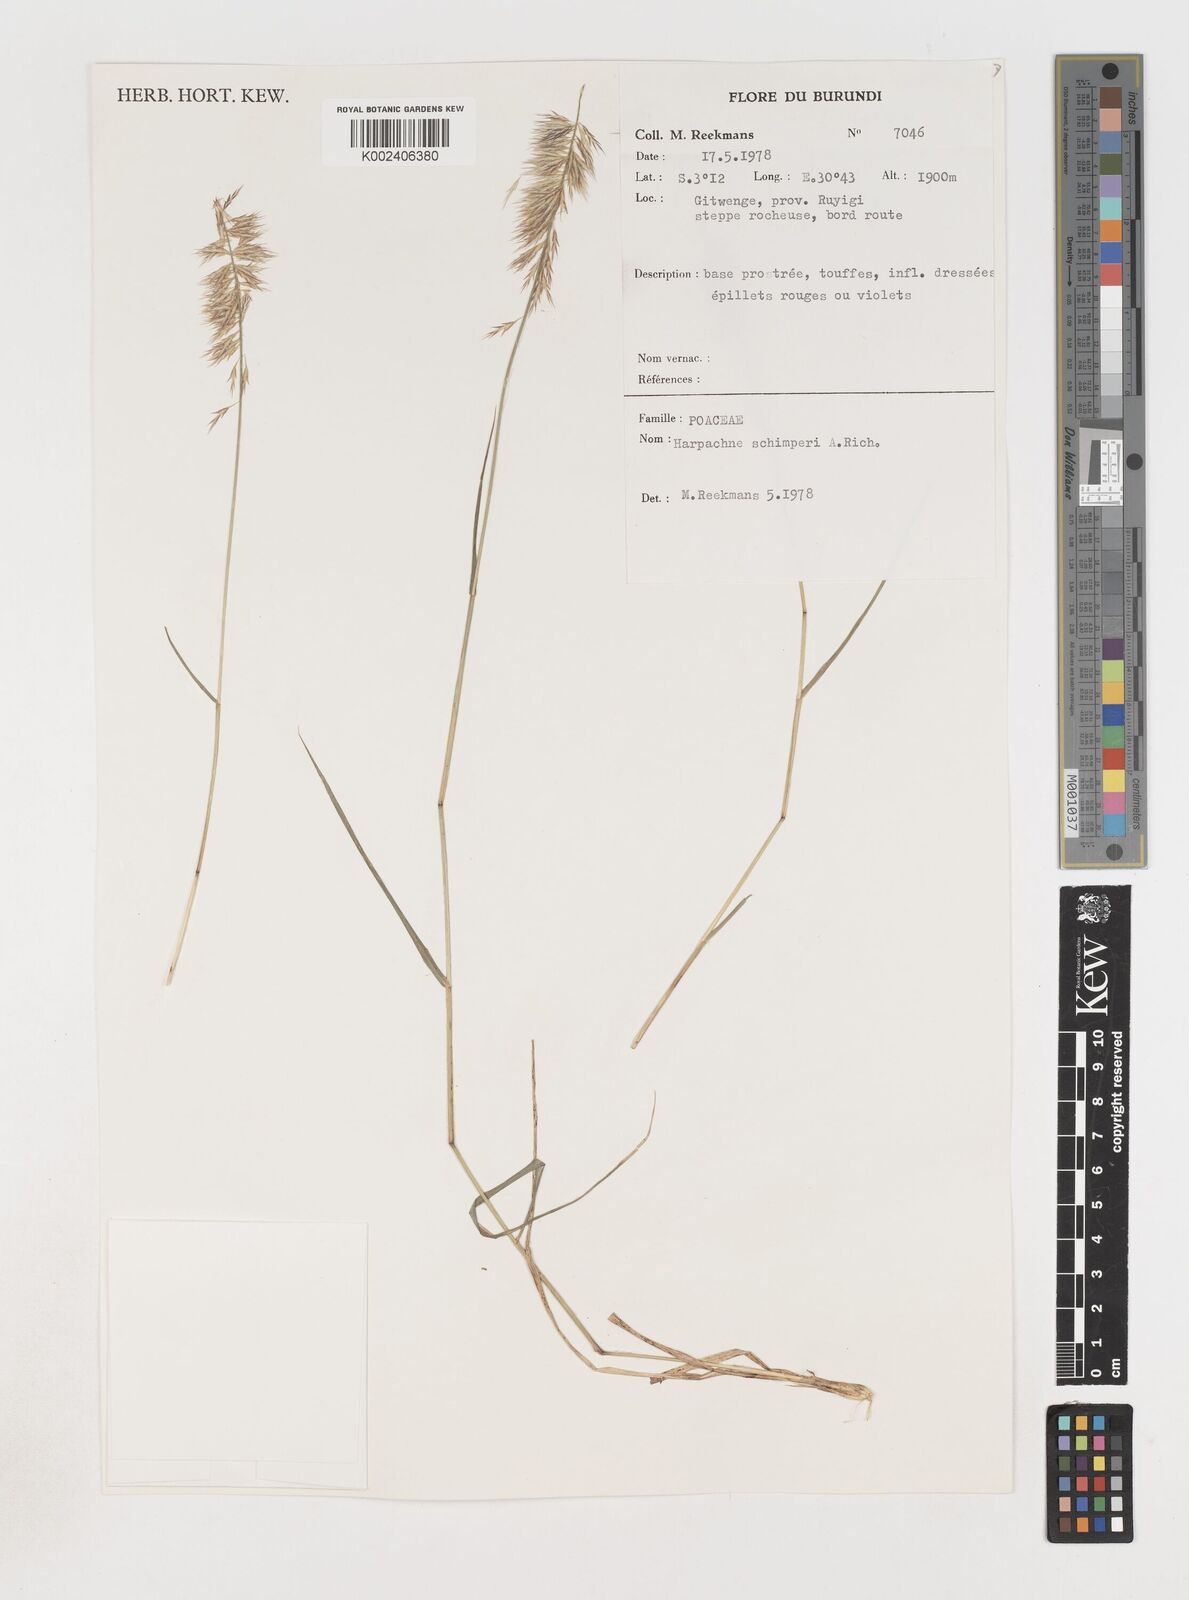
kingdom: Plantae
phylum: Tracheophyta
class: Liliopsida
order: Poales
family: Poaceae
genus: Harpachne
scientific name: Harpachne schimperi
